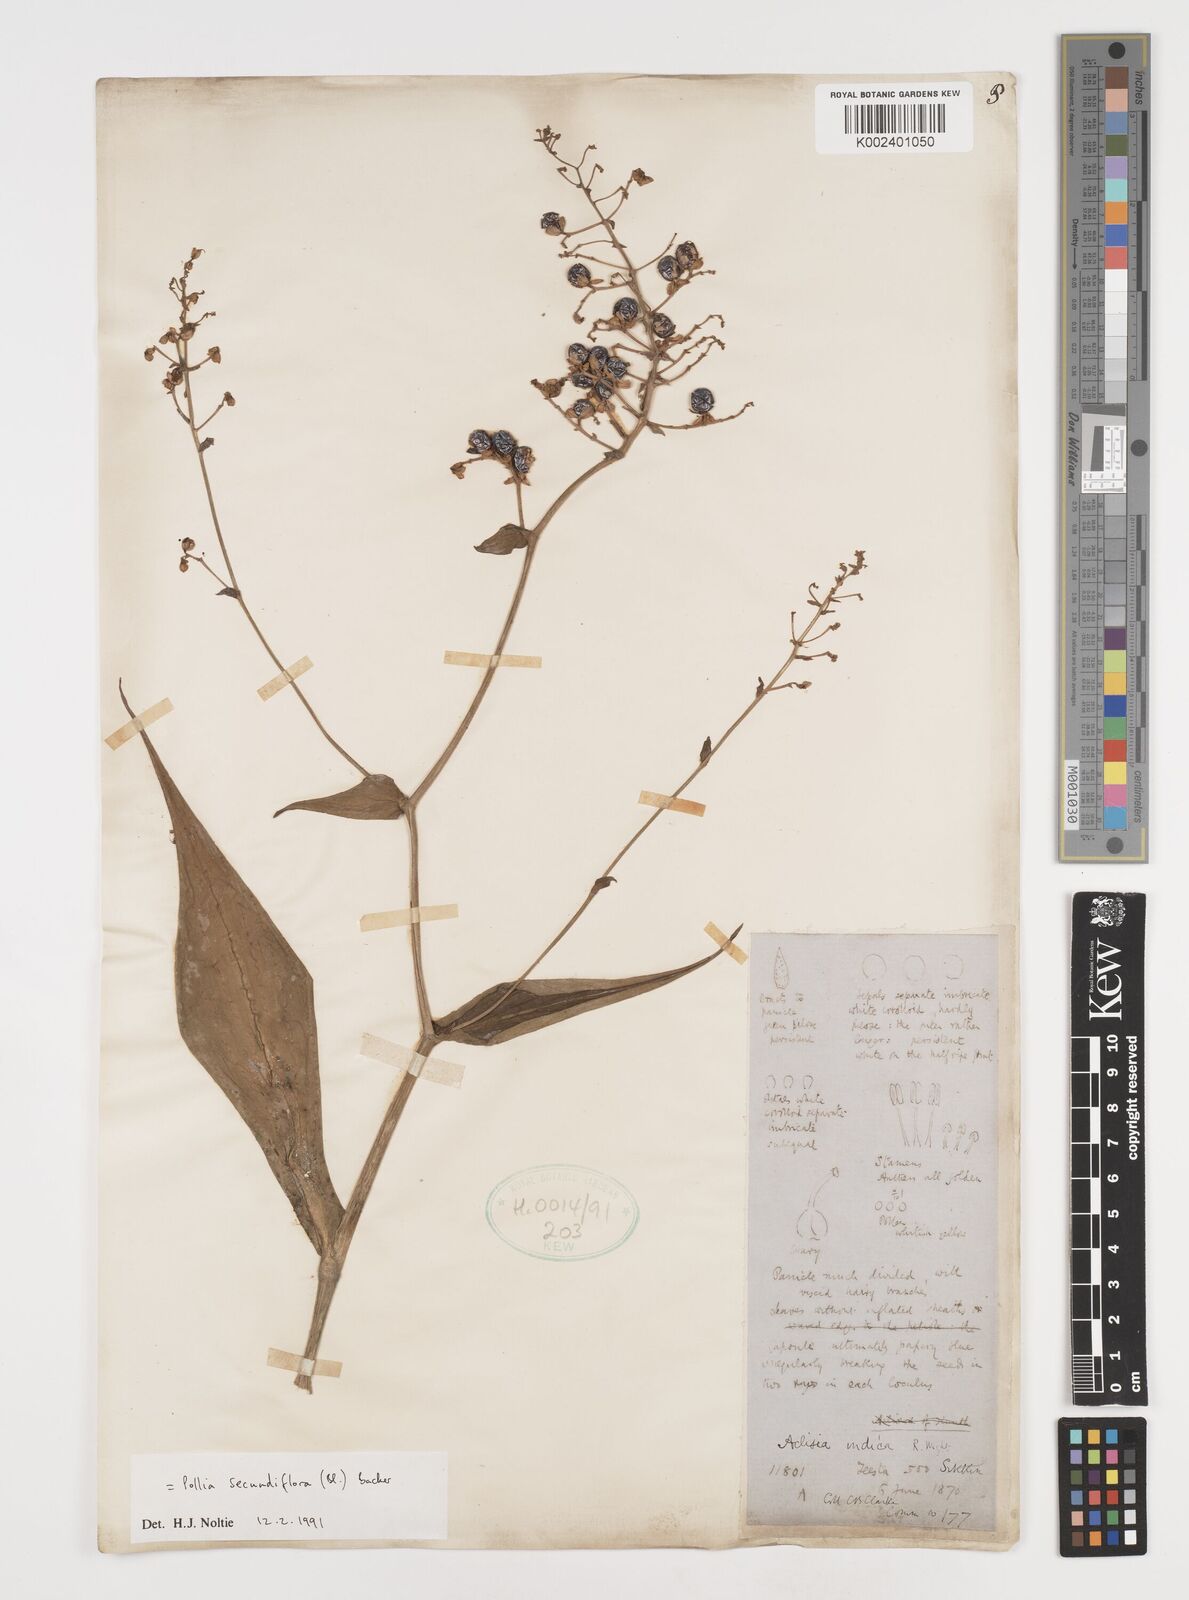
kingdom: Plantae
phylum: Tracheophyta
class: Liliopsida
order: Commelinales
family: Commelinaceae
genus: Pollia
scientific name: Pollia secundiflora
